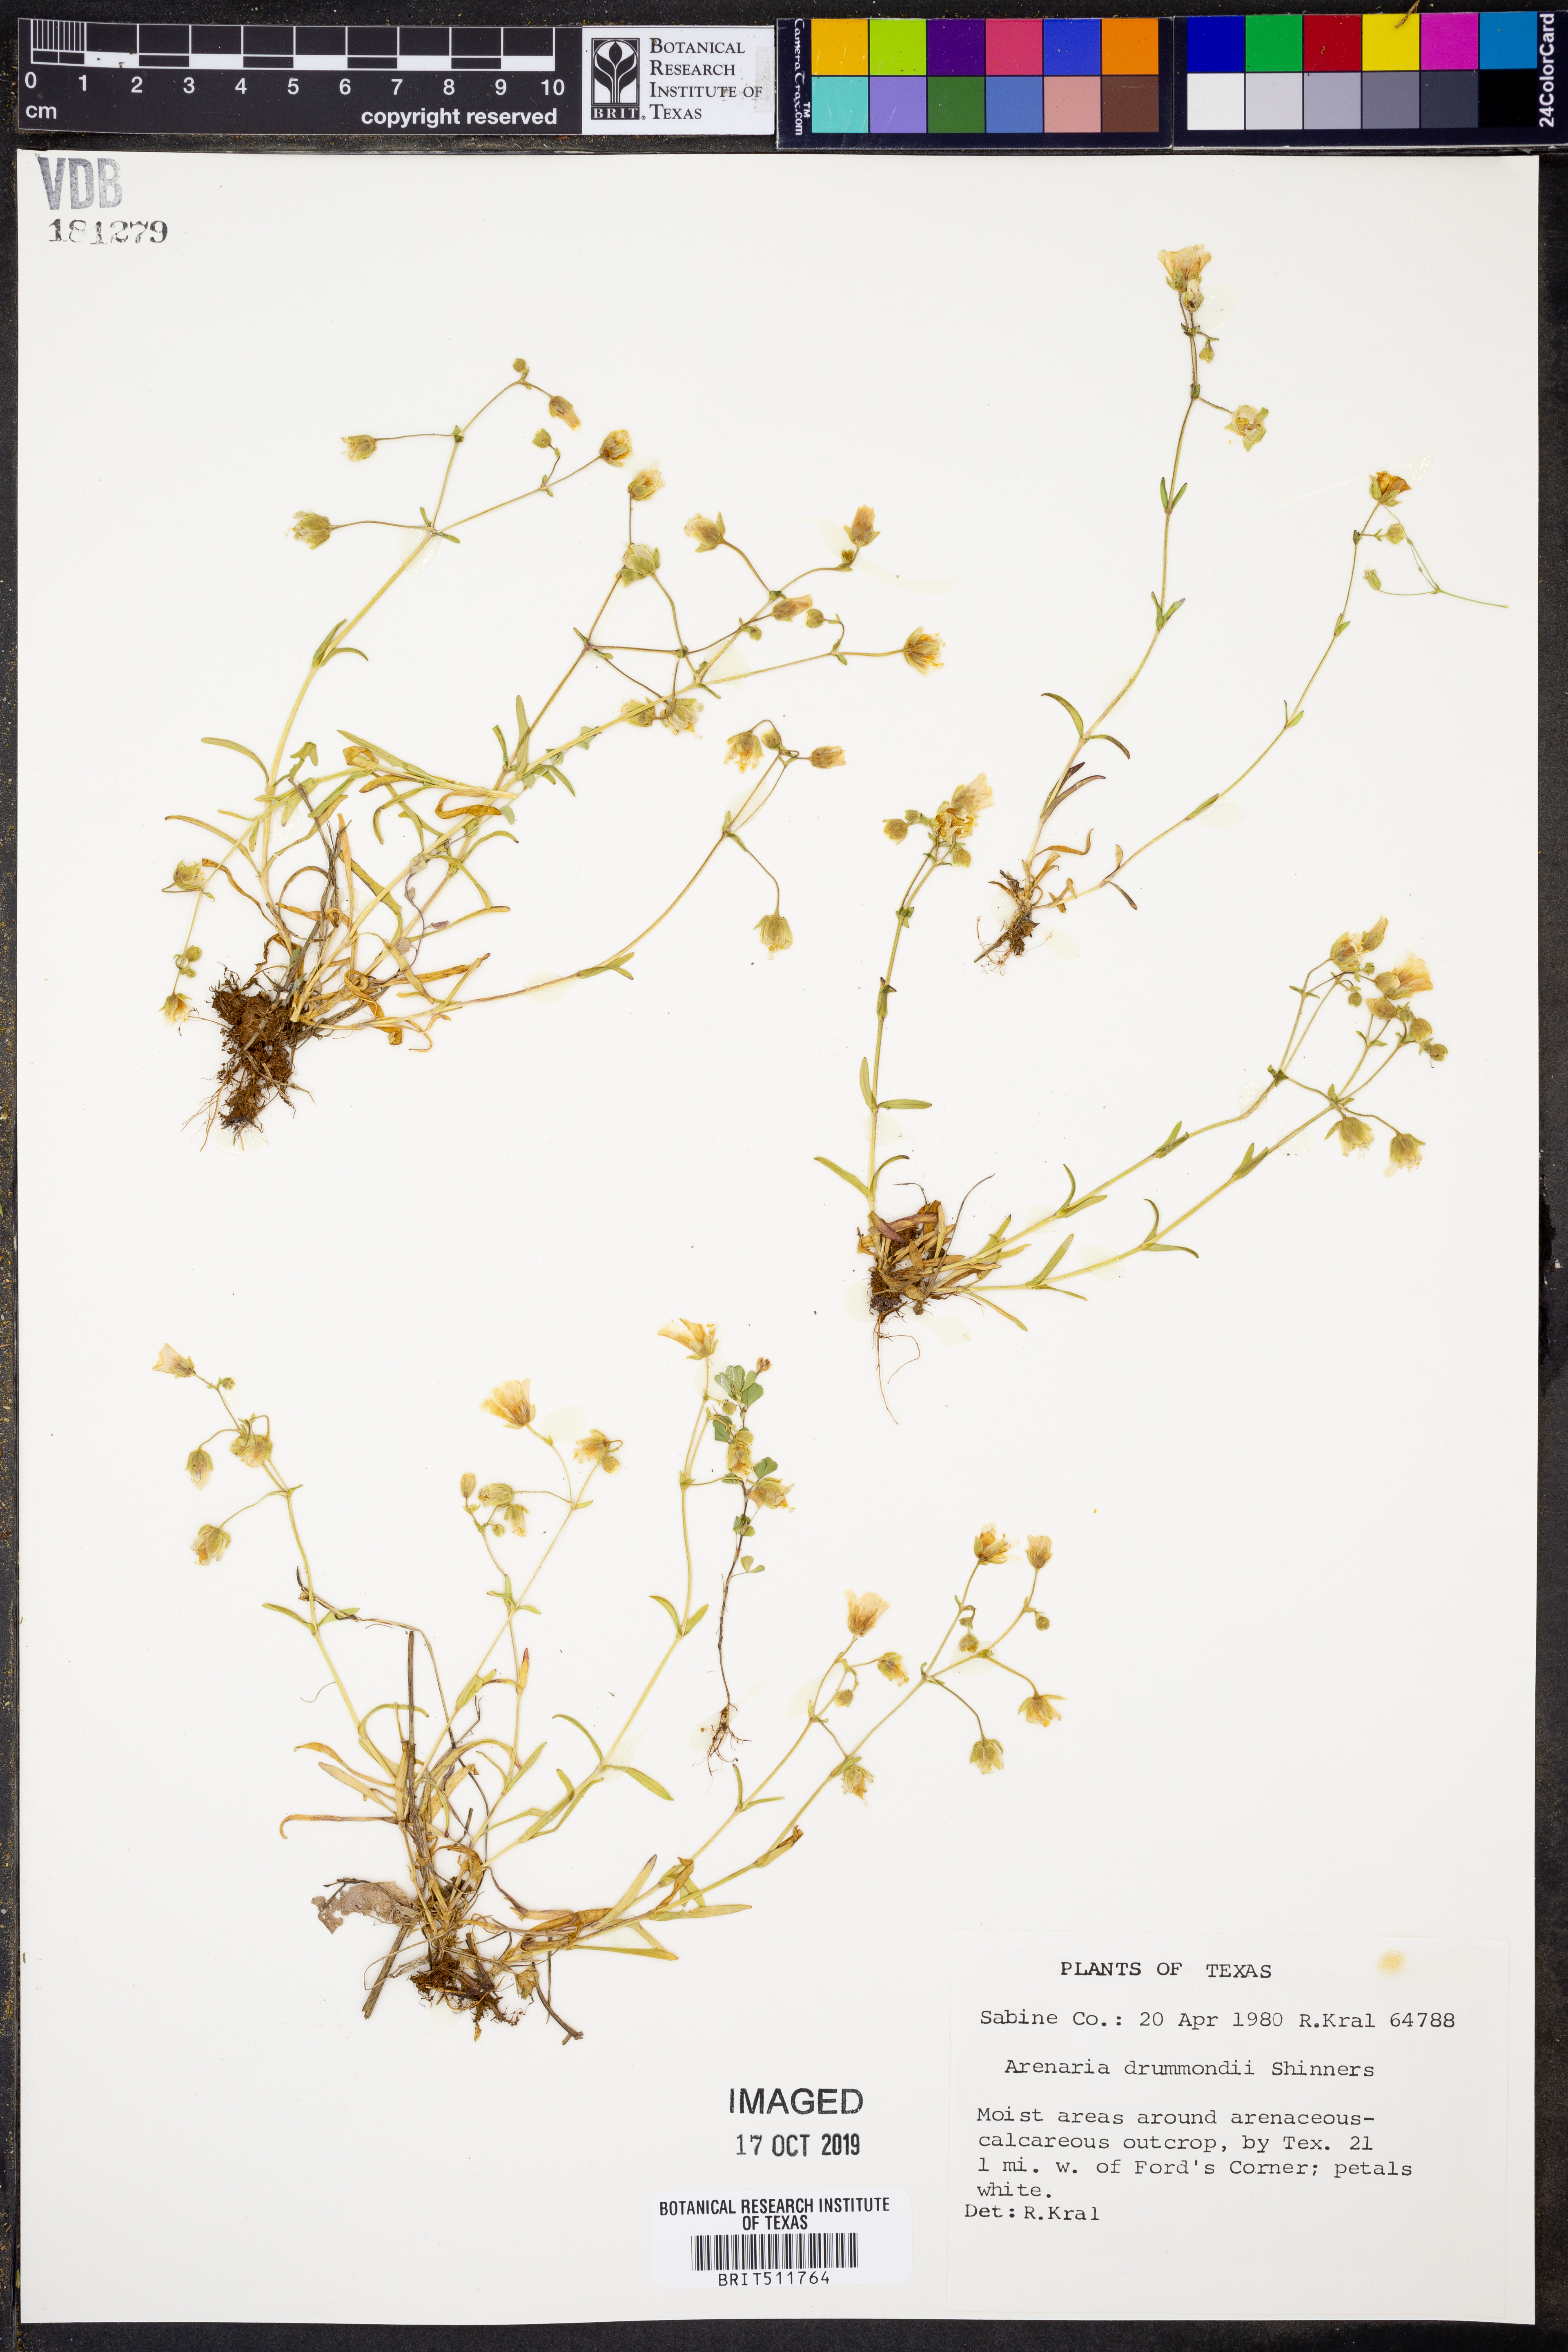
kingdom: Plantae
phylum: Tracheophyta
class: Magnoliopsida
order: Caryophyllales
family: Caryophyllaceae
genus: Geocarpon
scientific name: Geocarpon nuttallii
